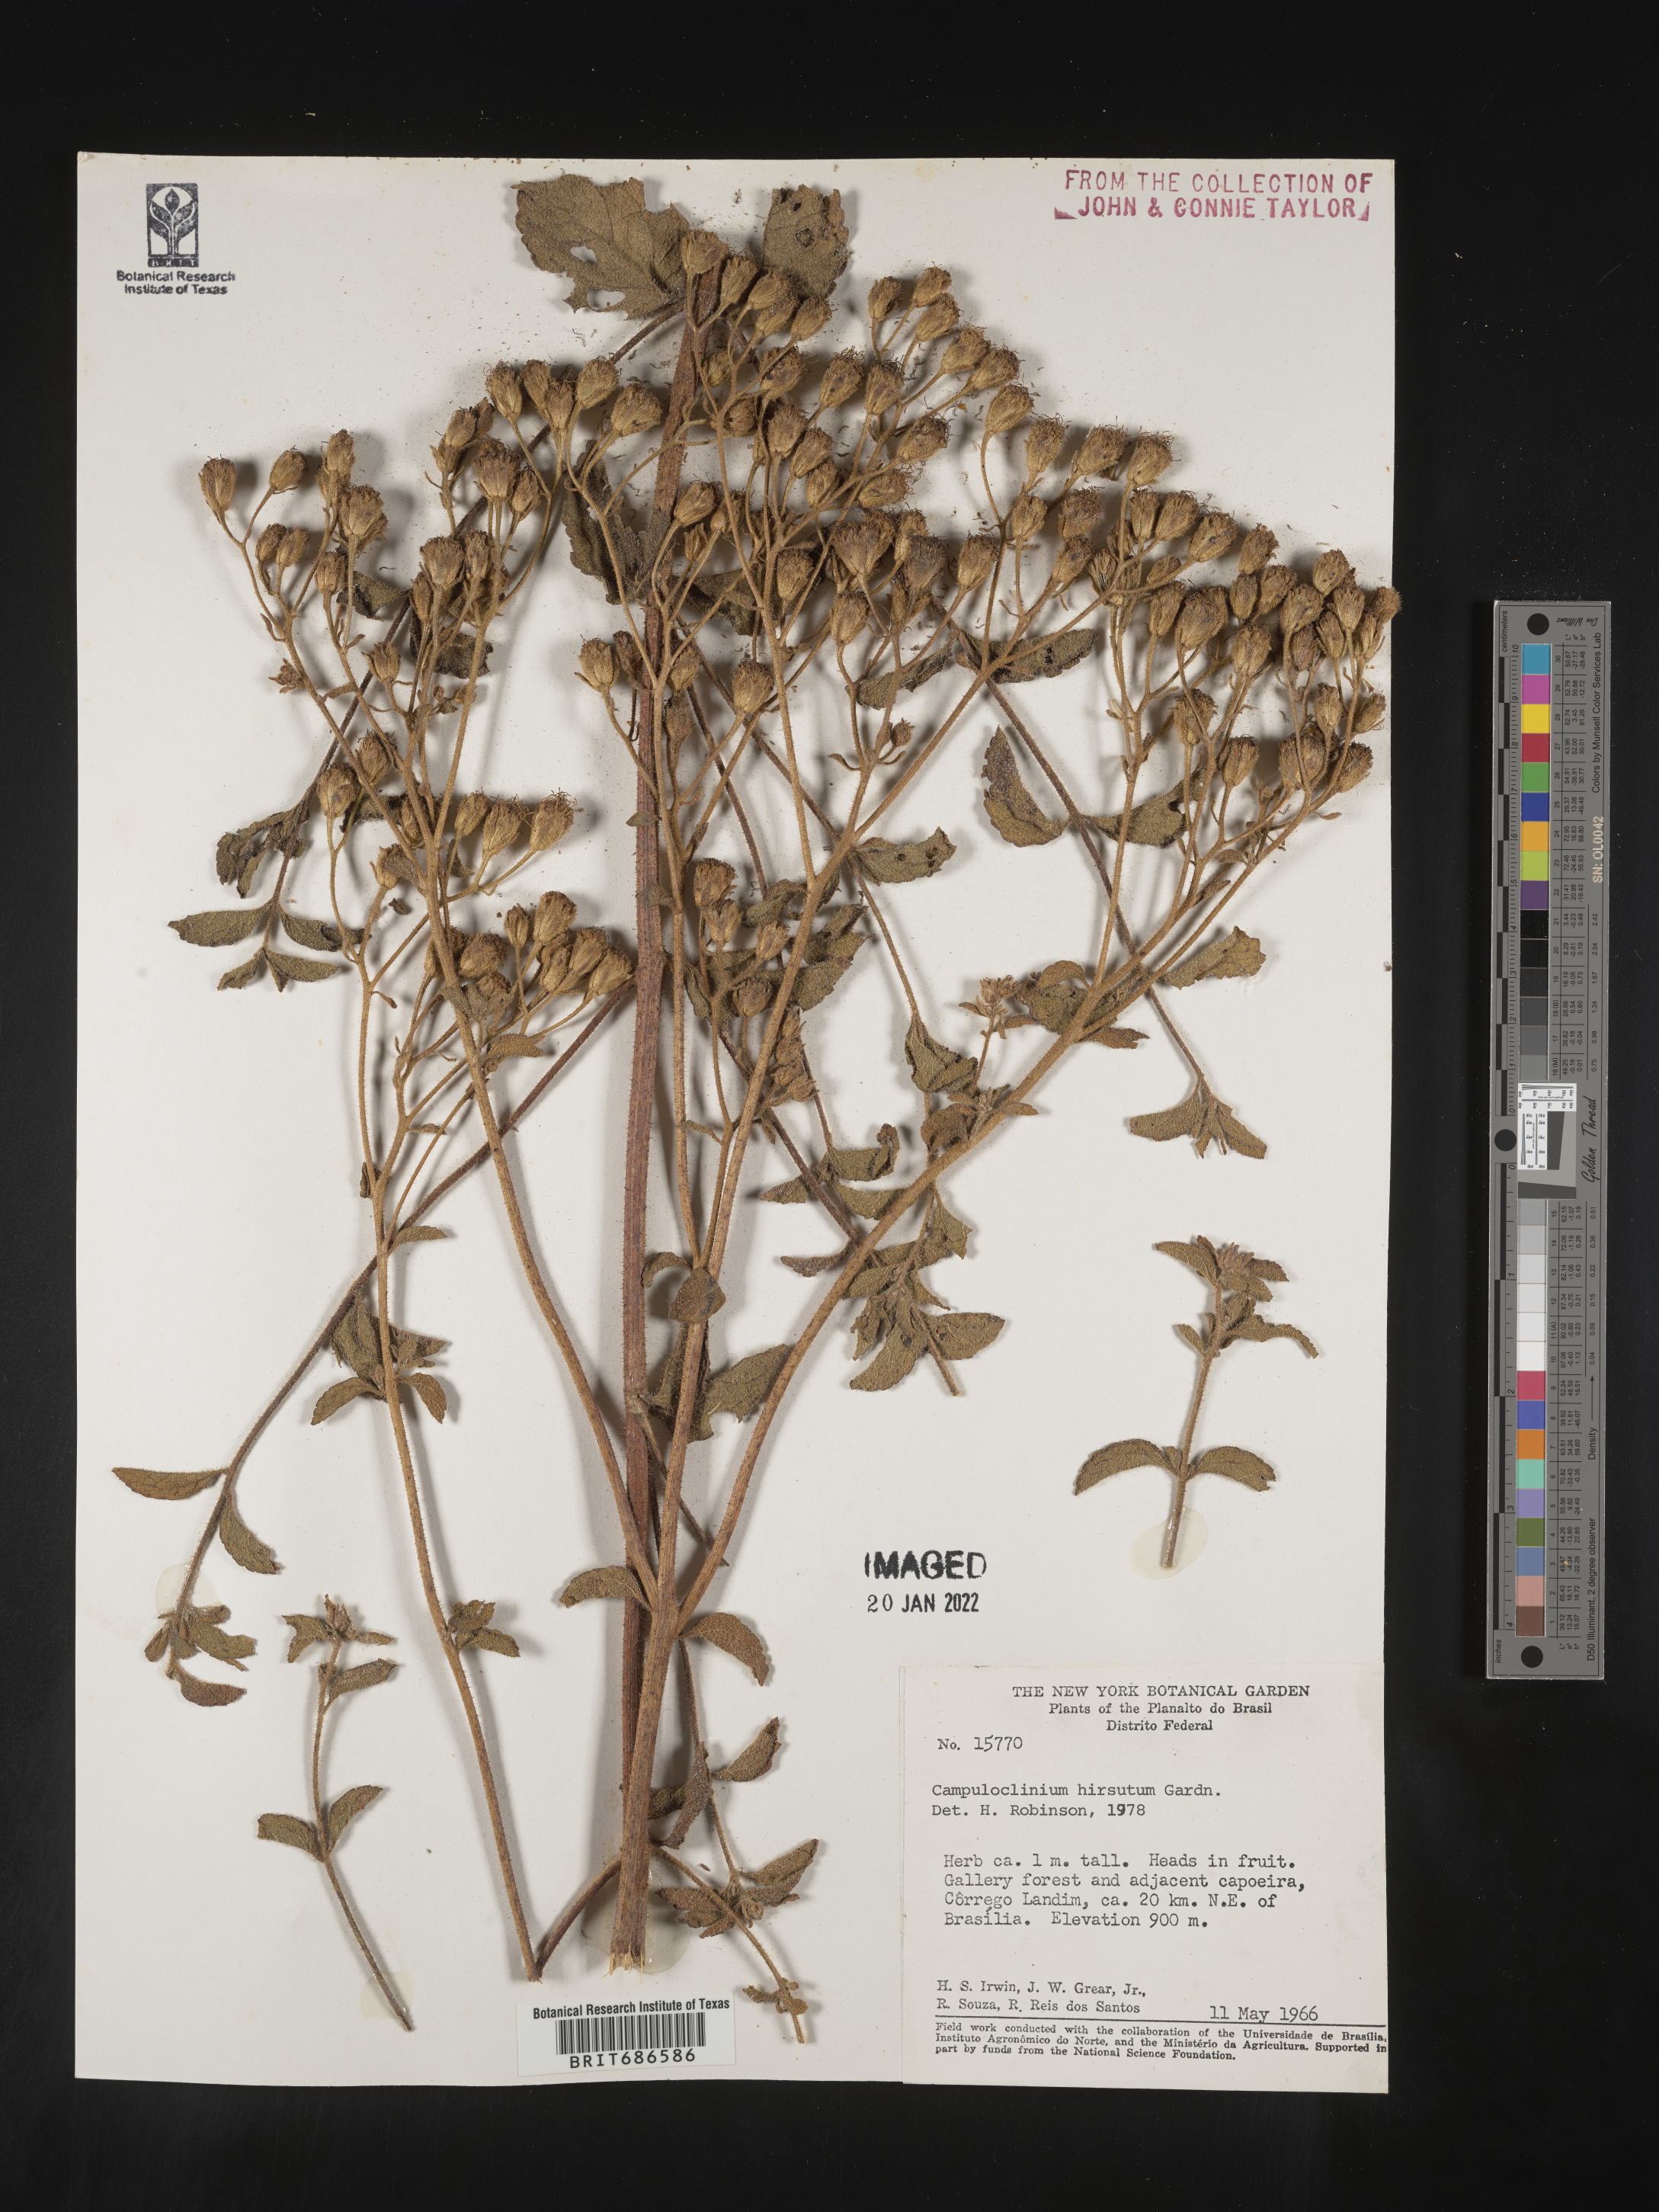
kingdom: Plantae
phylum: Tracheophyta
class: Magnoliopsida
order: Asterales
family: Asteraceae
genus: Campuloclinium
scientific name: Campuloclinium
